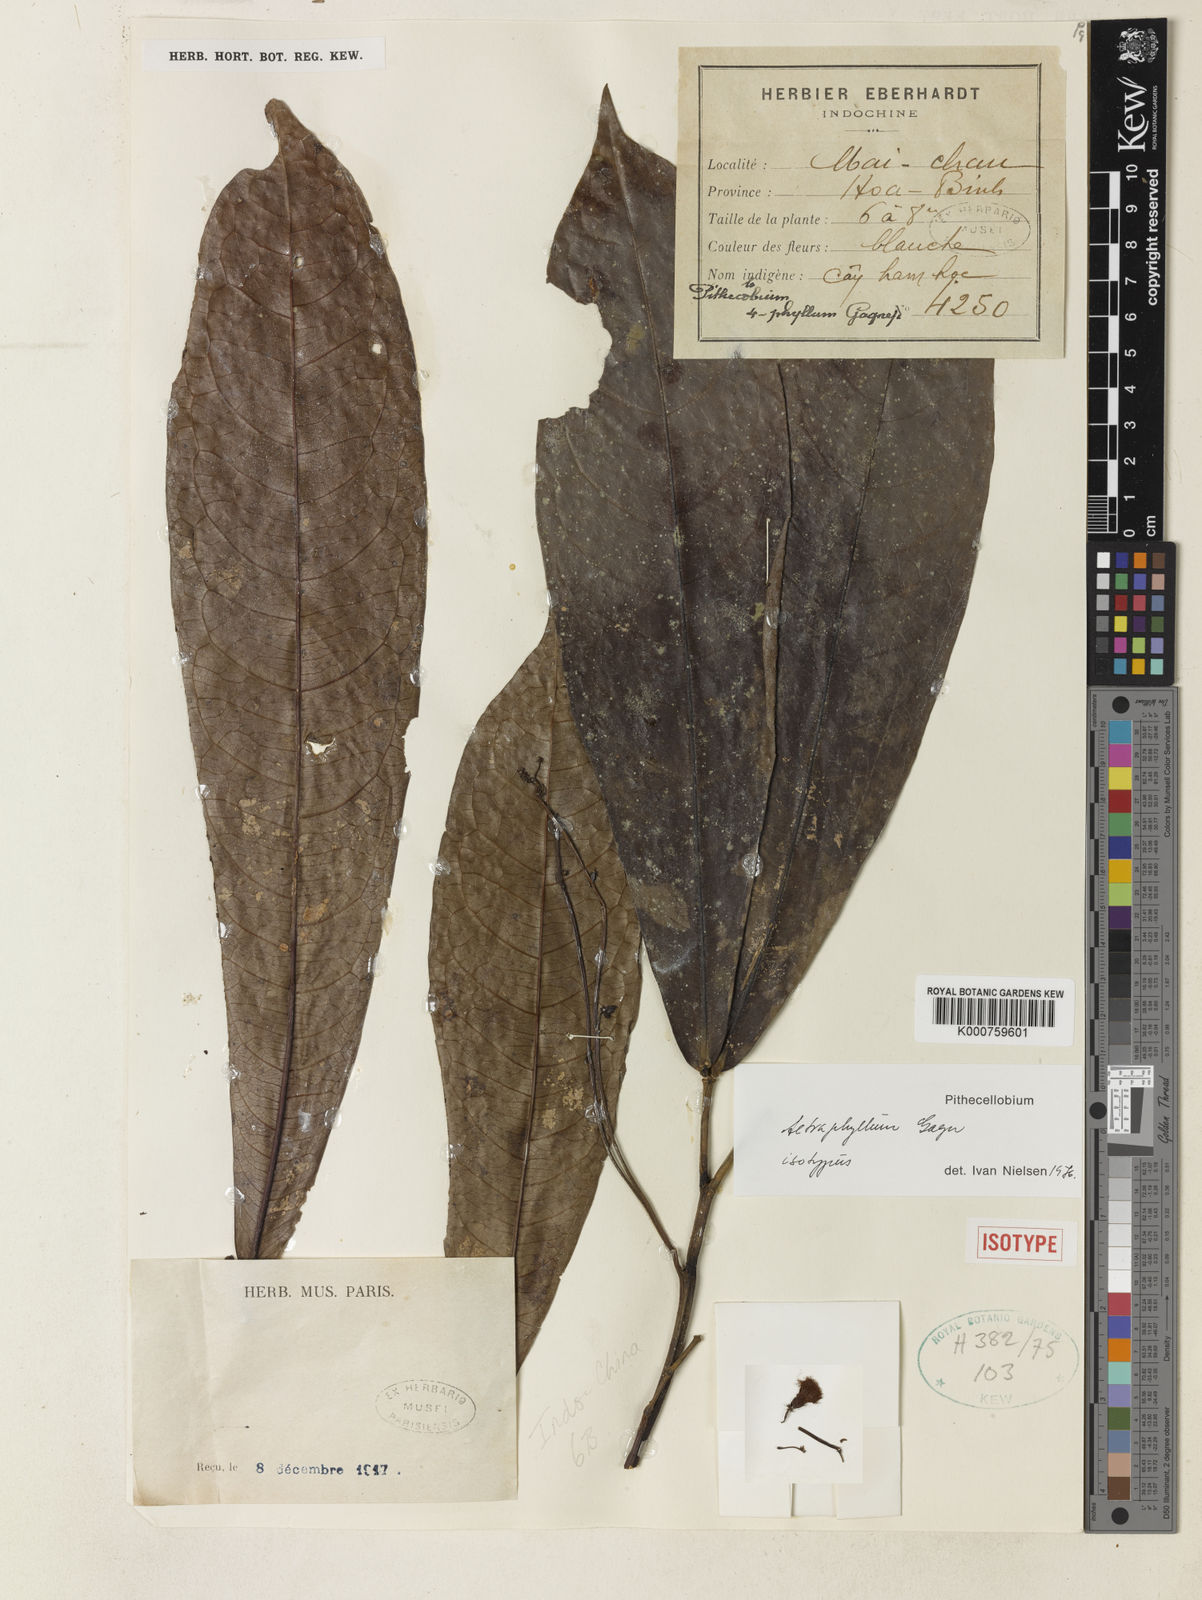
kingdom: Plantae
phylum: Tracheophyta
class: Magnoliopsida
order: Fabales
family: Fabaceae
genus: Archidendron
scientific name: Archidendron tetraphyllum
